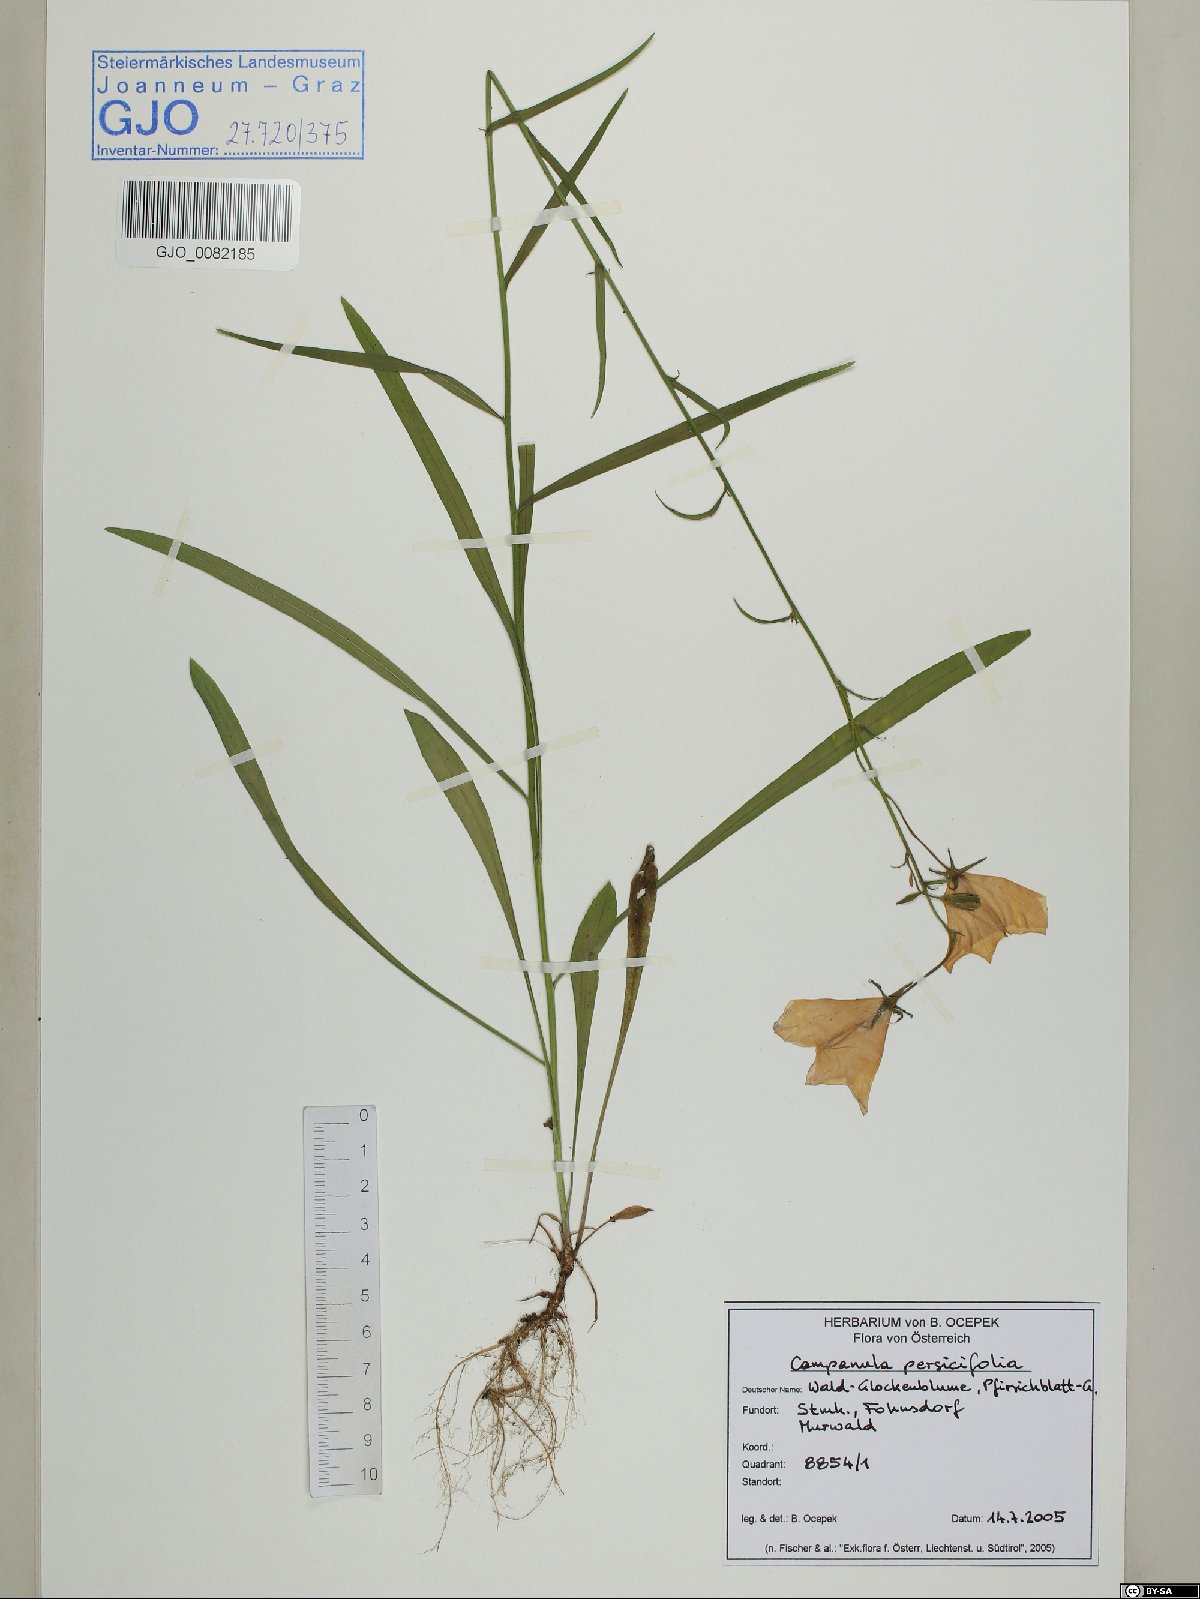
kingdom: Plantae
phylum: Tracheophyta
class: Magnoliopsida
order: Asterales
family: Campanulaceae
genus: Campanula
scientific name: Campanula persicifolia
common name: Peach-leaved bellflower
